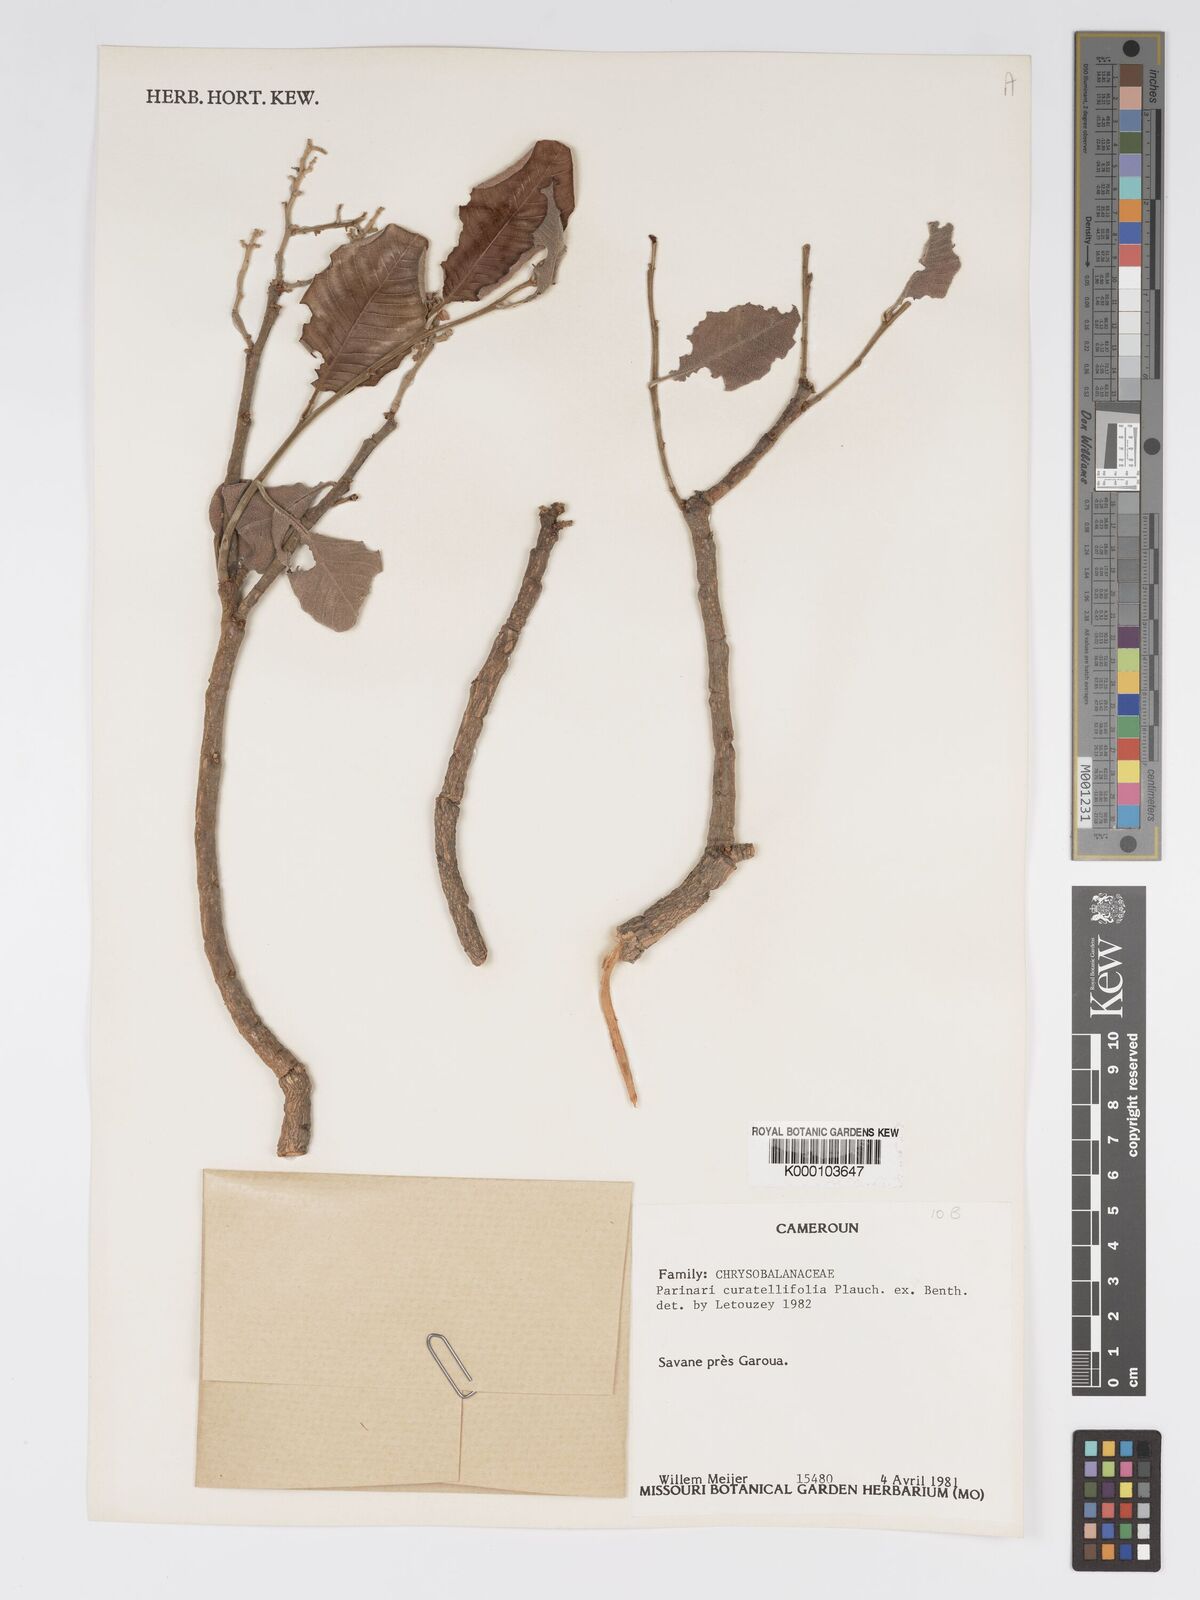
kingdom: Plantae
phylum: Tracheophyta
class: Magnoliopsida
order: Malpighiales
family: Chrysobalanaceae
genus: Parinari
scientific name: Parinari curatellifolia
